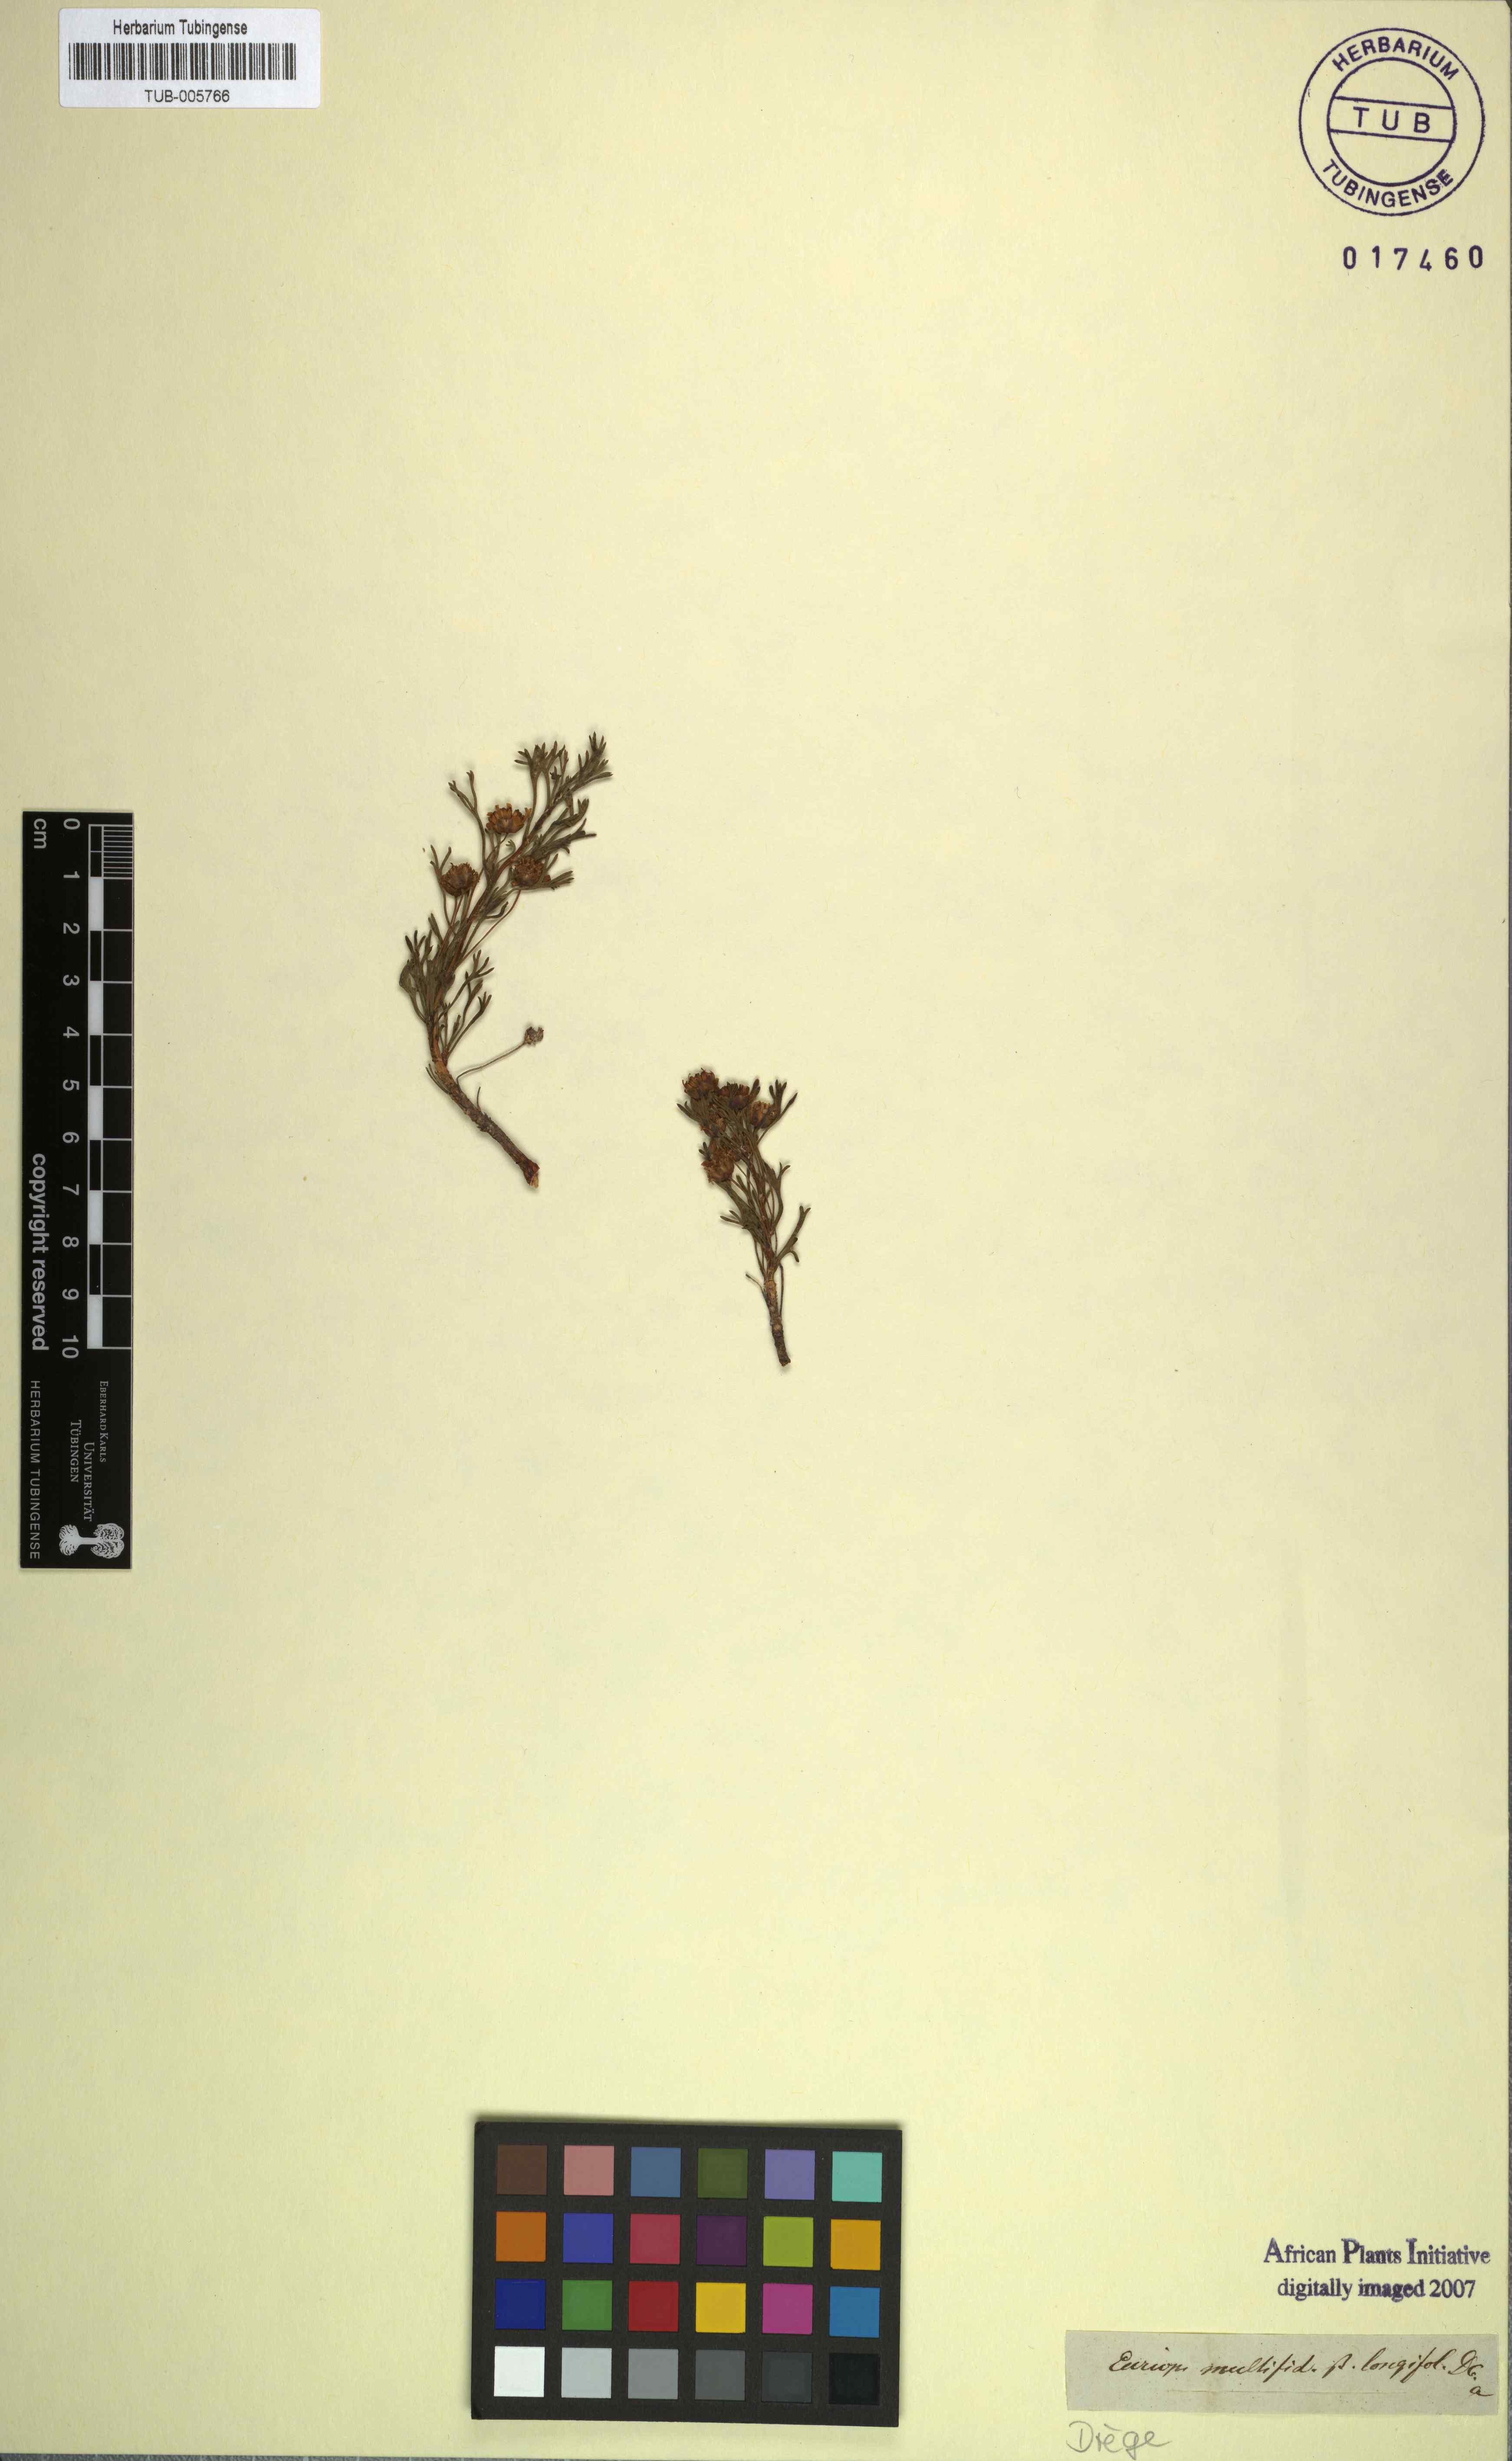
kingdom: Plantae
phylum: Tracheophyta
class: Magnoliopsida
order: Asterales
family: Asteraceae
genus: Euryops
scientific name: Euryops multifidus
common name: Hawk's eye
